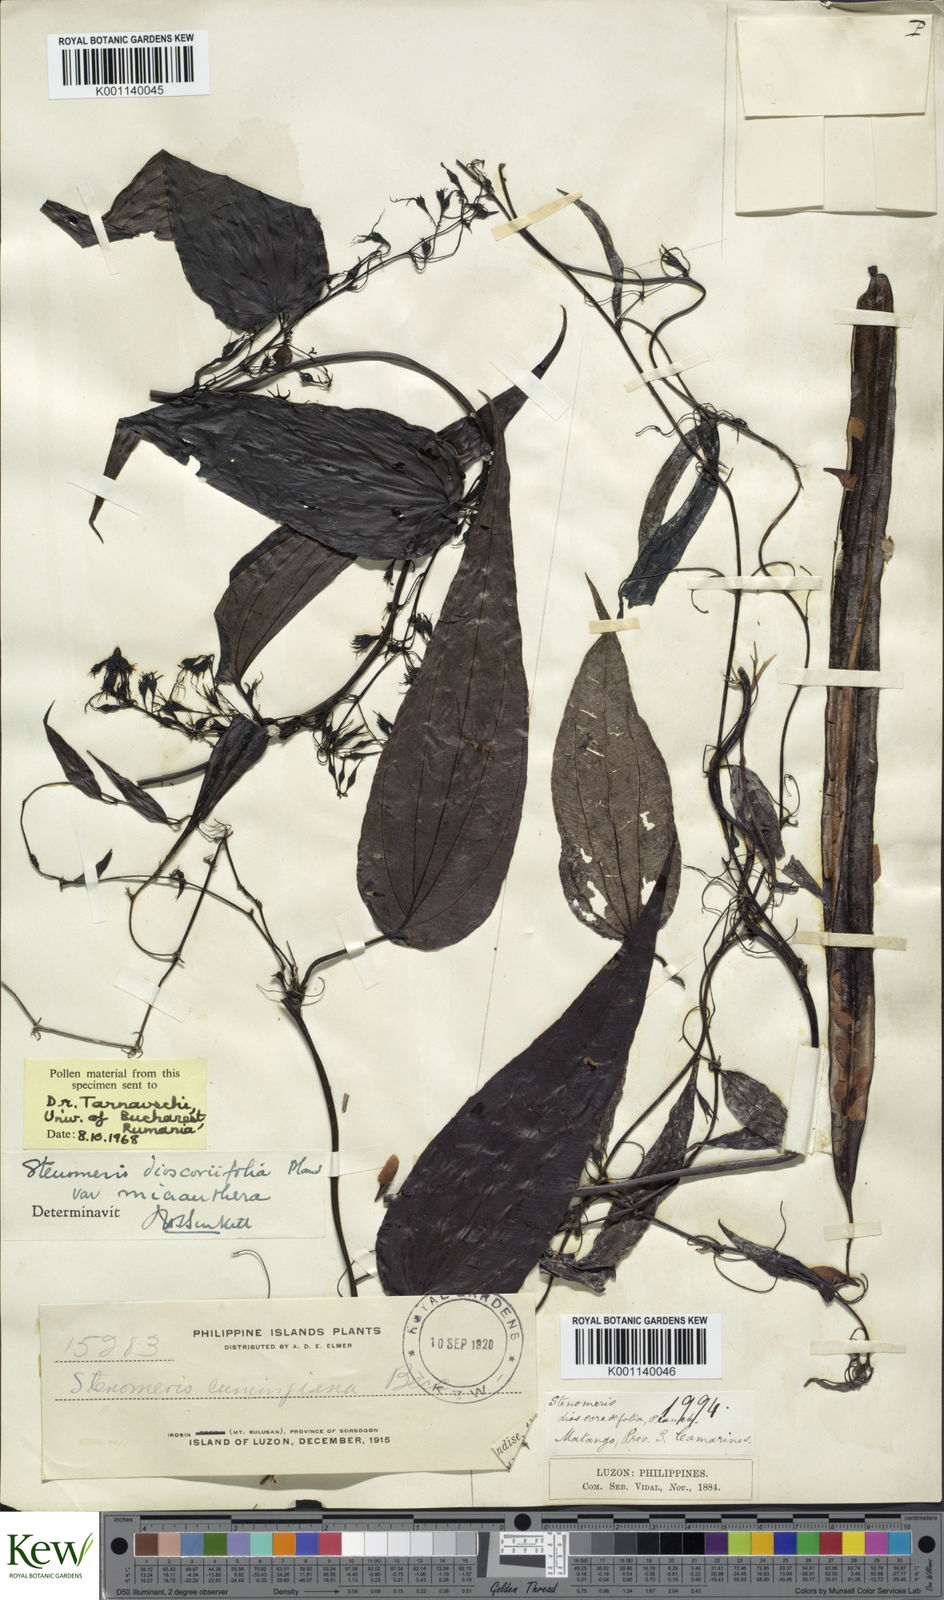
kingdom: Plantae
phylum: Tracheophyta
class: Liliopsida
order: Dioscoreales
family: Dioscoreaceae
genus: Stenomeris
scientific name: Stenomeris dioscoreifolia
